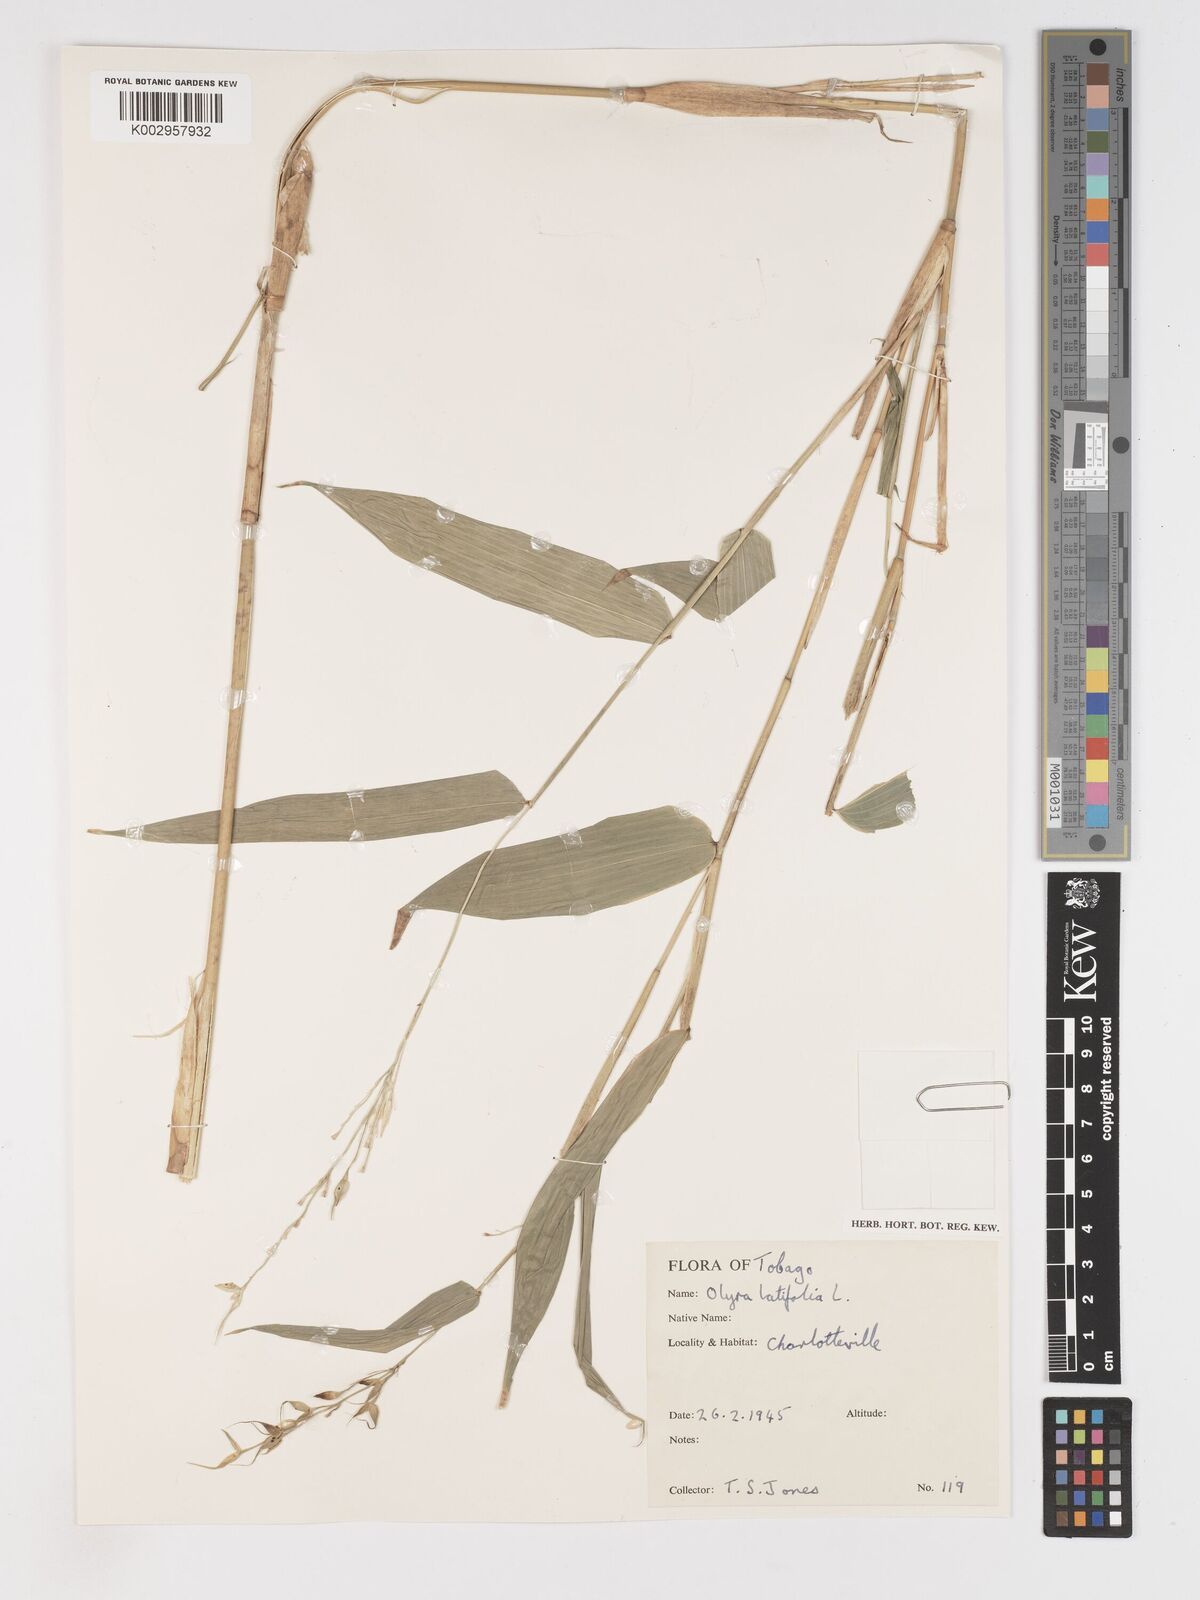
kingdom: Plantae
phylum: Tracheophyta
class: Liliopsida
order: Poales
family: Poaceae
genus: Olyra
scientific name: Olyra latifolia
